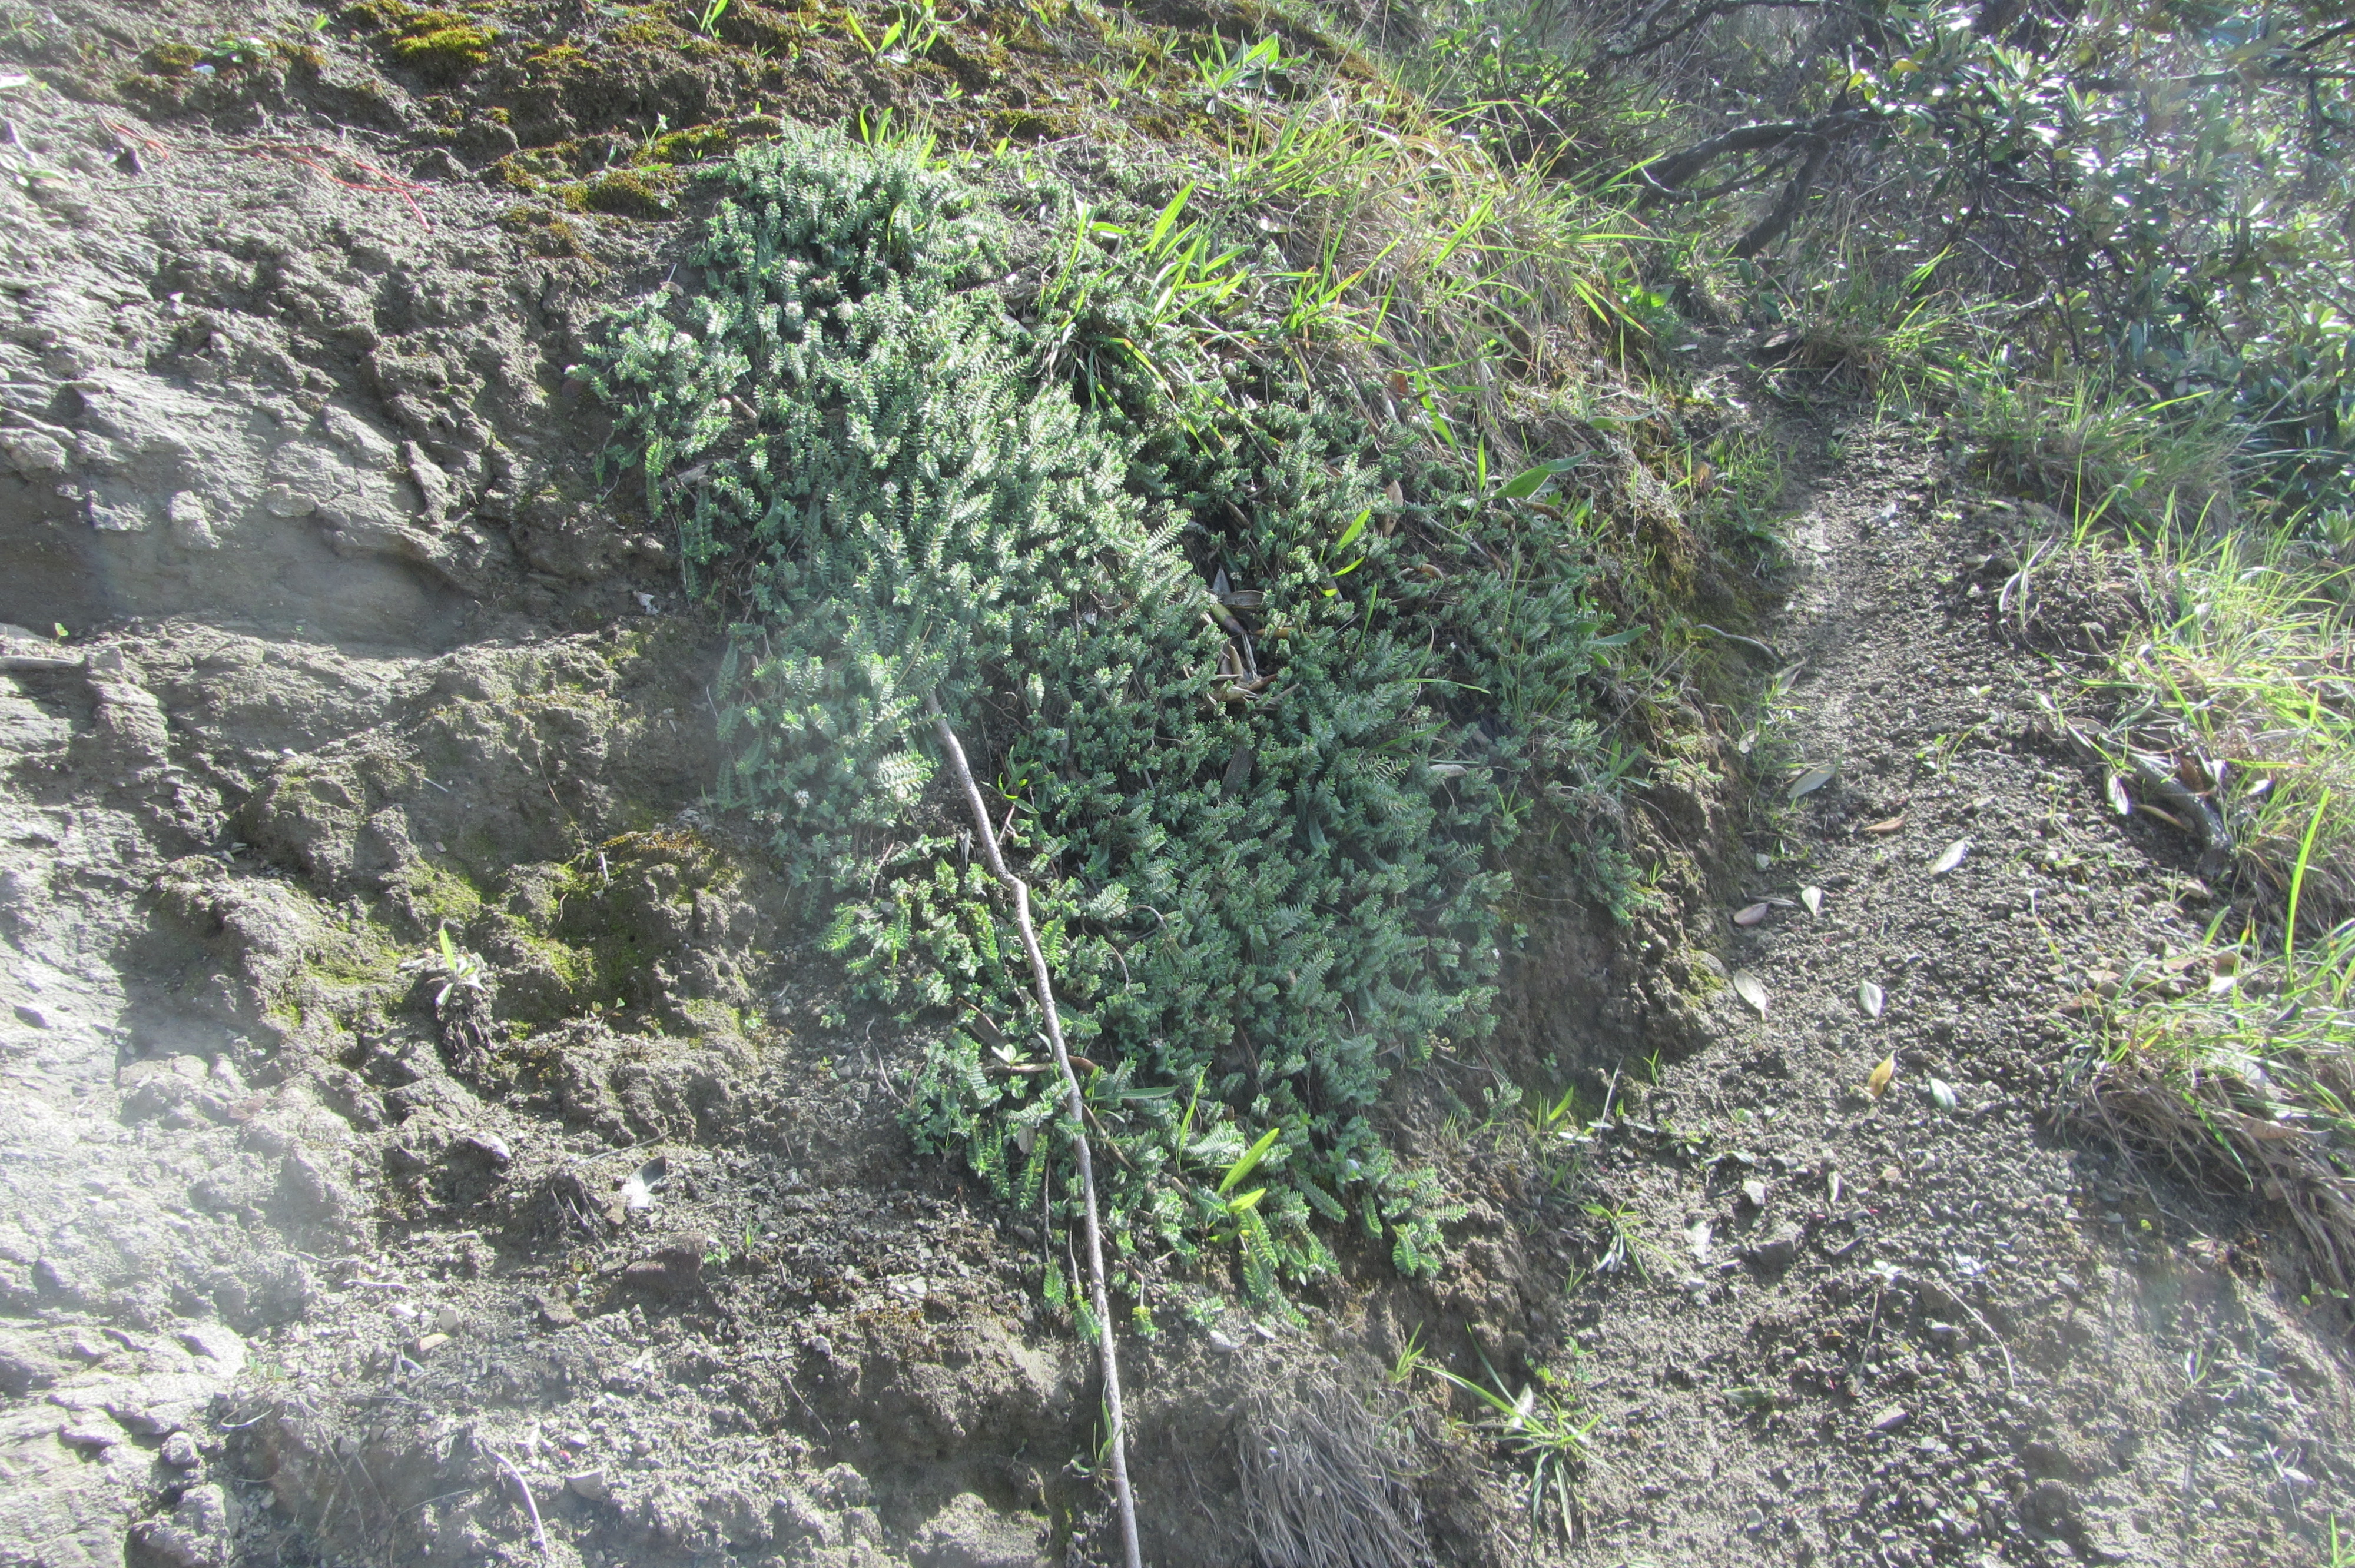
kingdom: Plantae
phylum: Tracheophyta
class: Magnoliopsida
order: Malvales
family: Thymelaeaceae
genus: Pimelea
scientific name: Pimelea urvilleana
